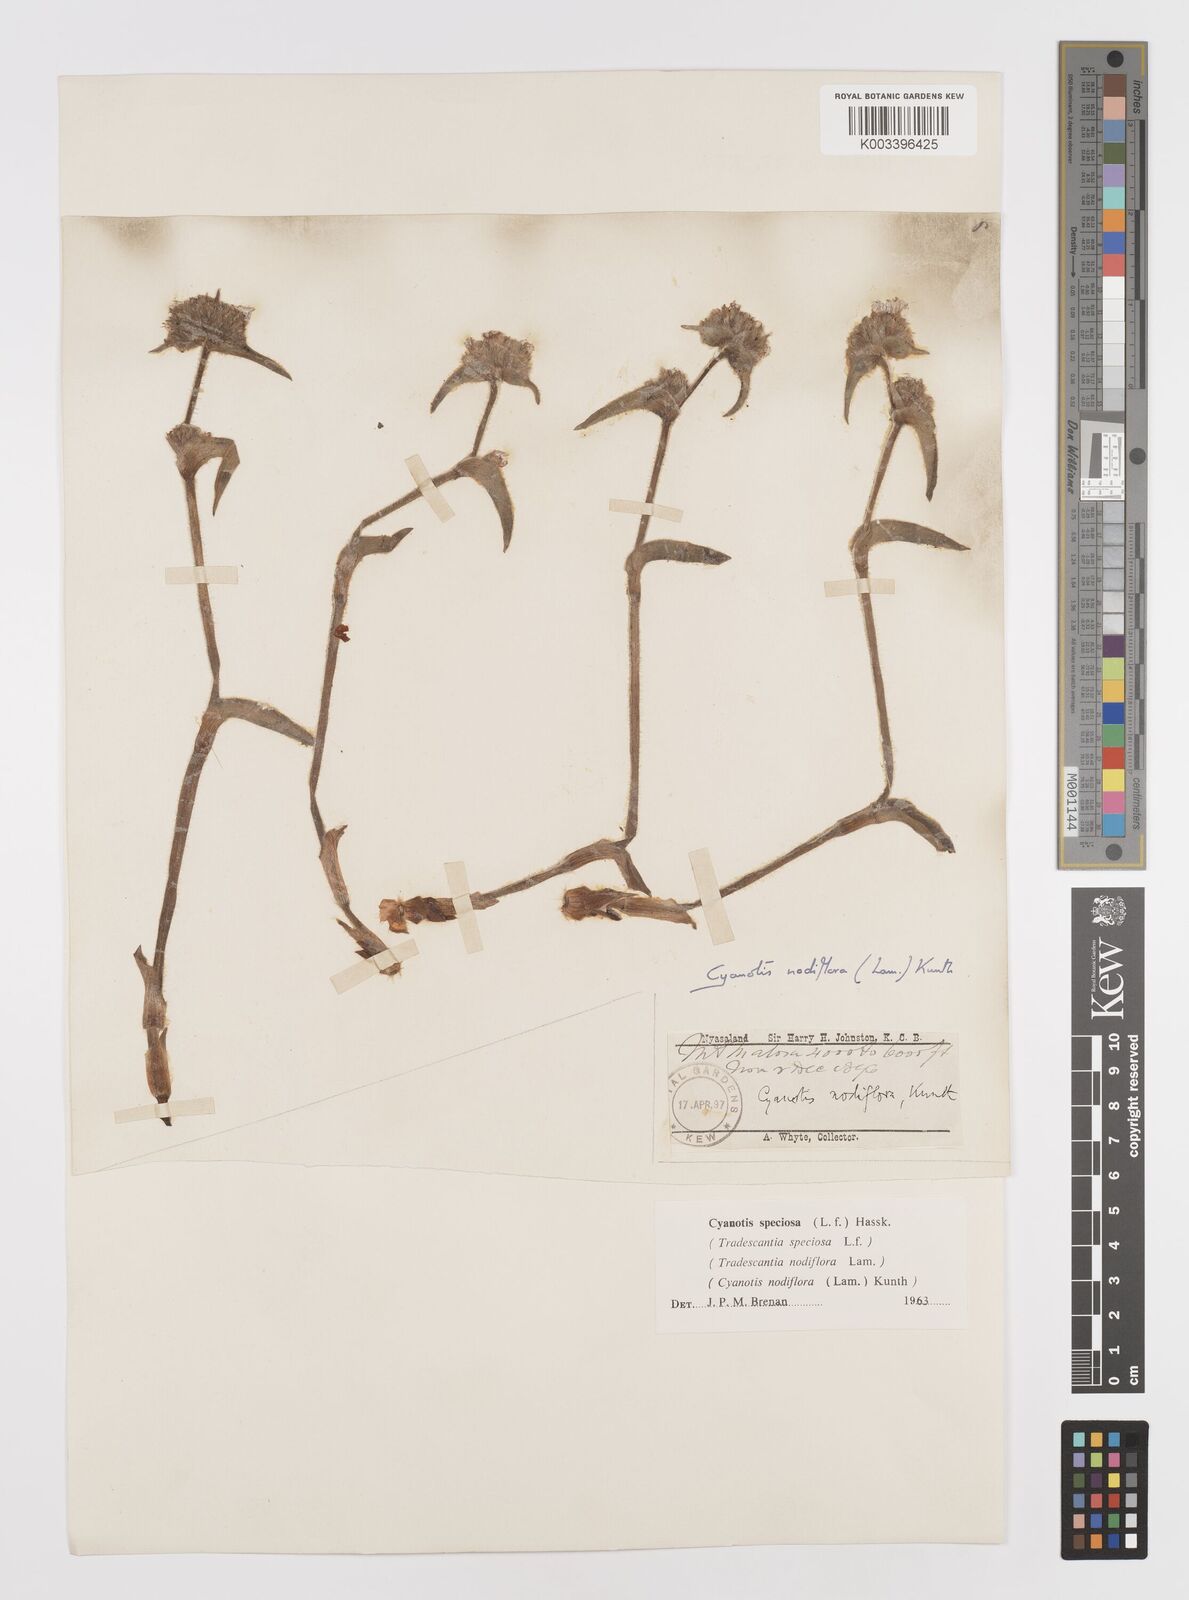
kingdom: Plantae
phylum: Tracheophyta
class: Liliopsida
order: Commelinales
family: Commelinaceae
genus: Cyanotis
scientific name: Cyanotis speciosa
